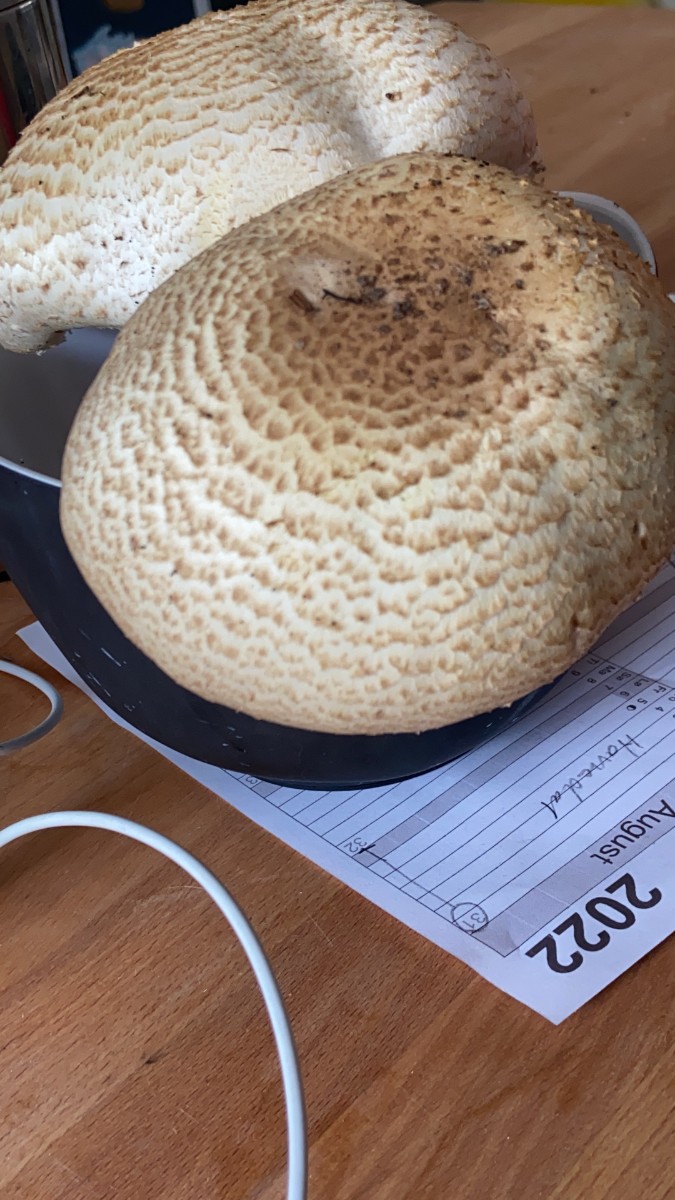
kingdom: Fungi
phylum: Basidiomycota
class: Agaricomycetes
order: Agaricales
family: Agaricaceae
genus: Agaricus
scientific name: Agaricus augustus
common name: prægtig champignon
